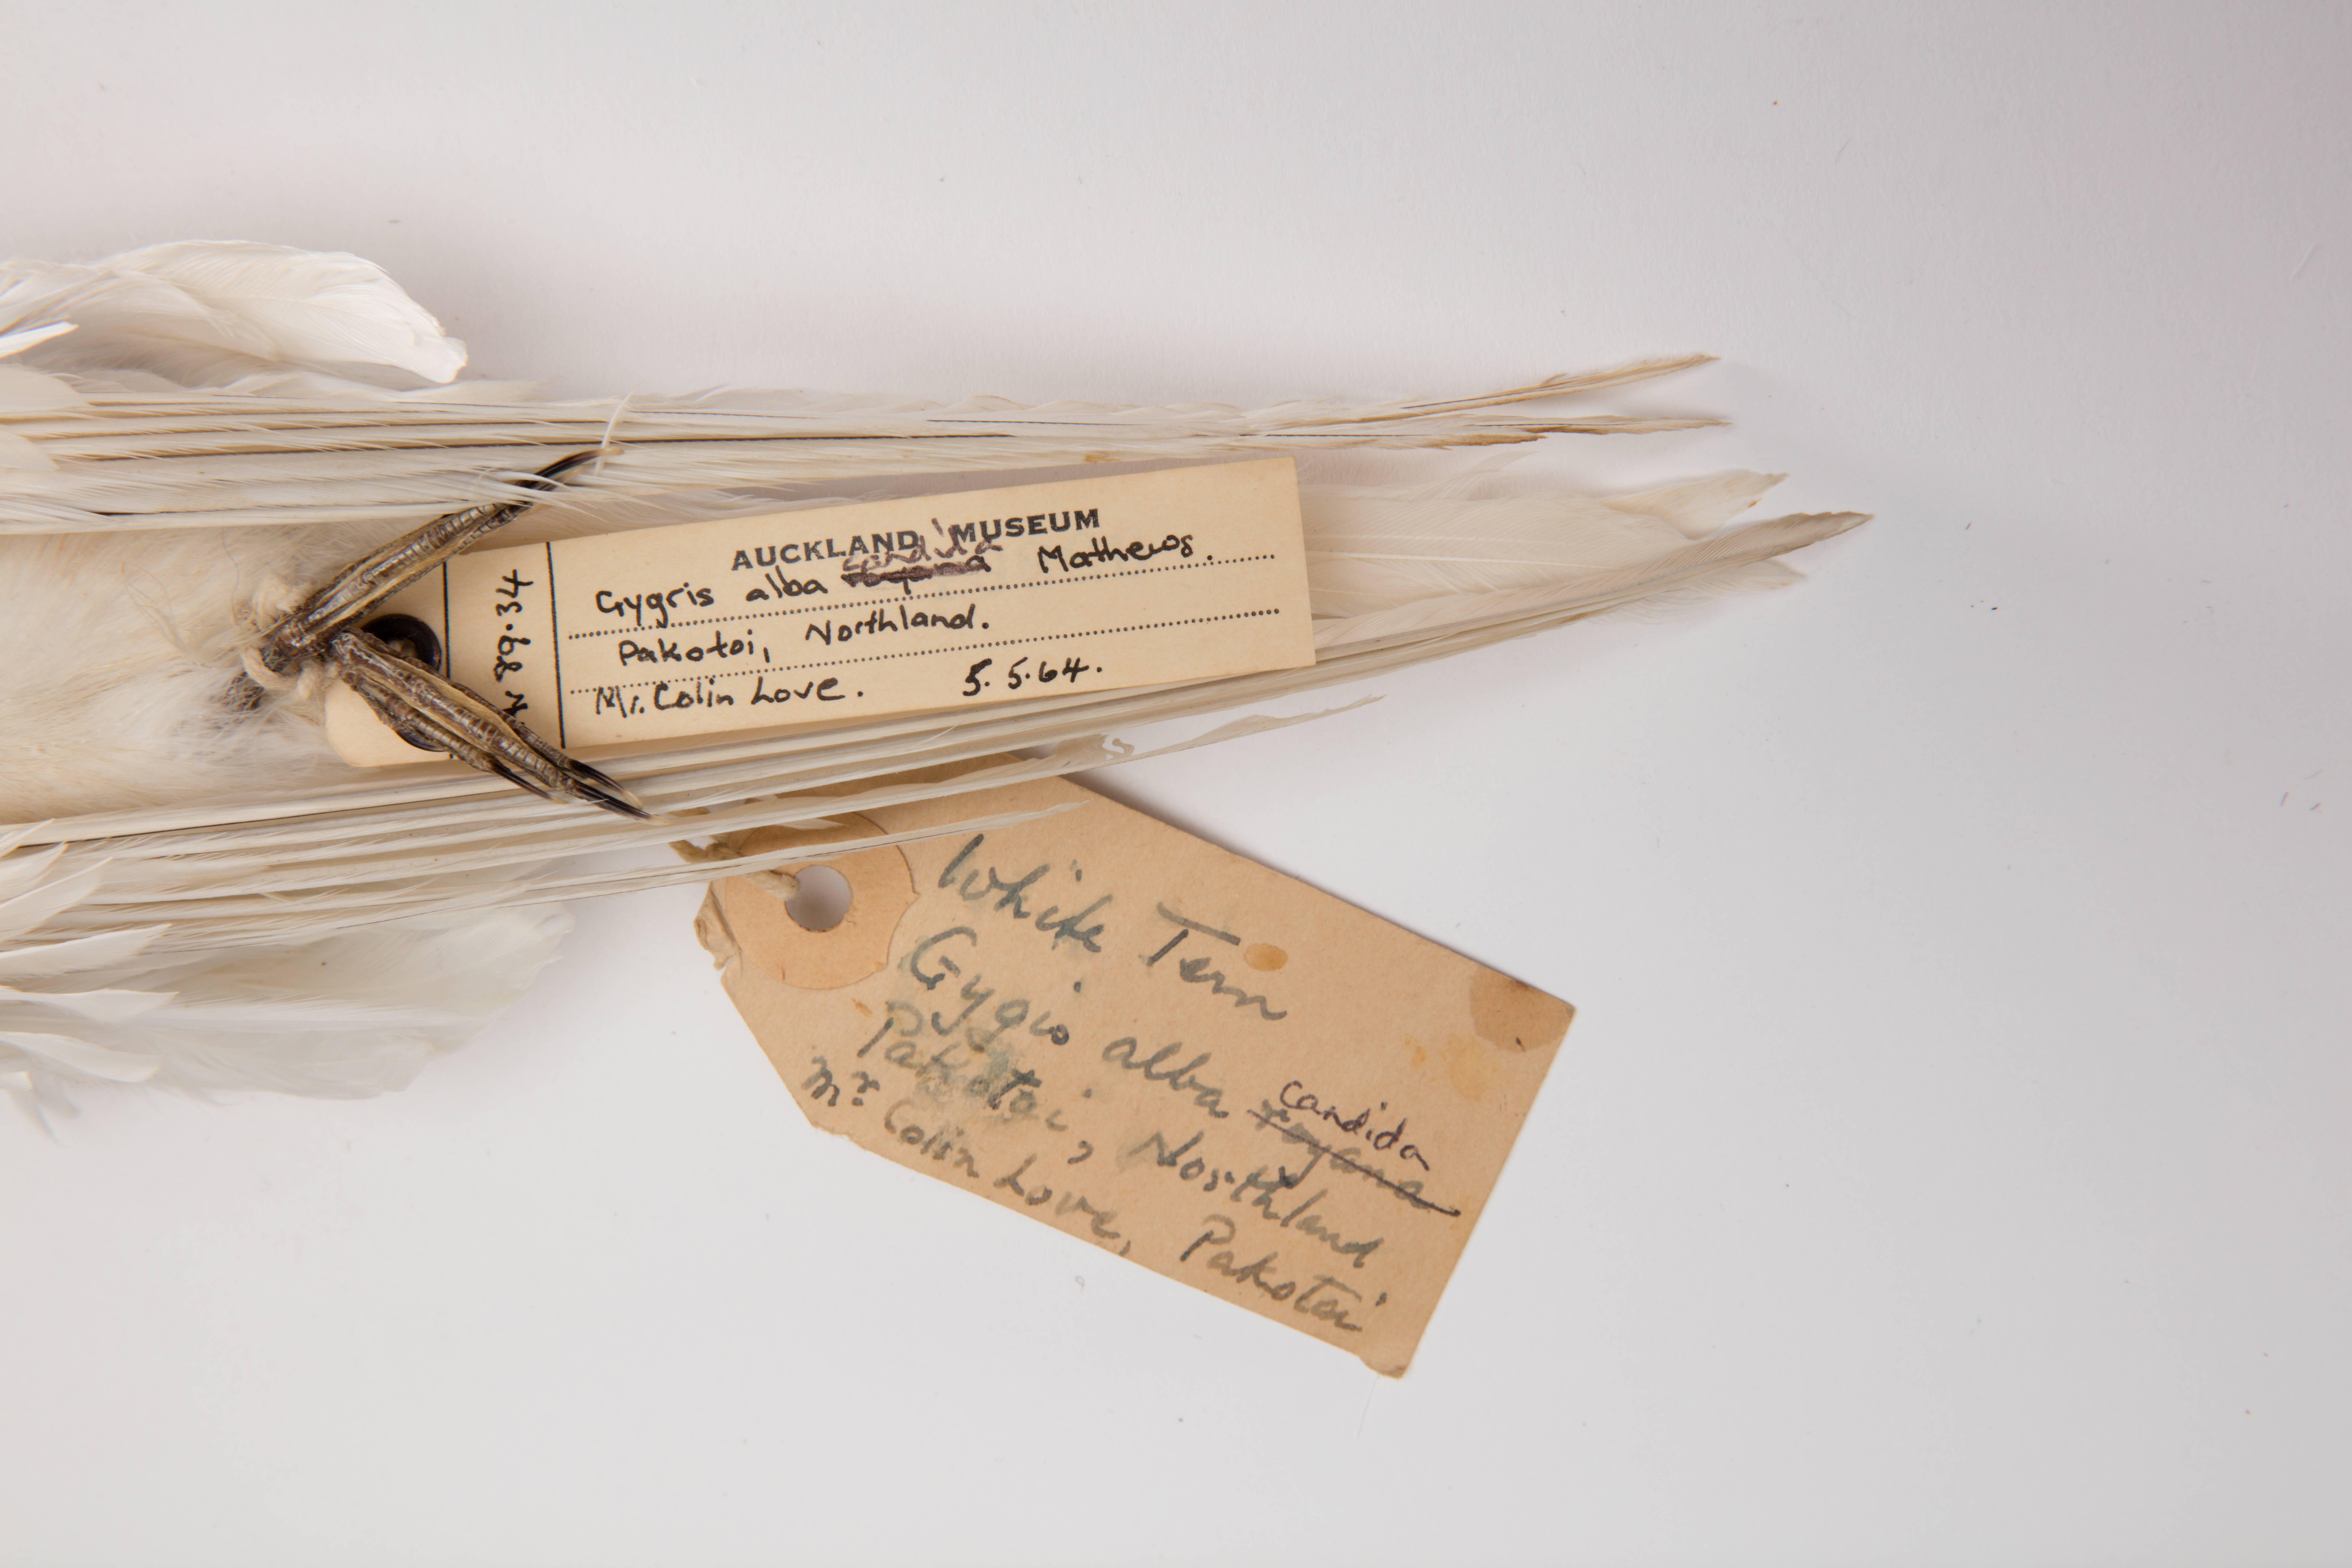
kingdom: Animalia
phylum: Chordata
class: Aves
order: Charadriiformes
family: Laridae
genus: Gygis
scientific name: Gygis alba
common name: White tern
